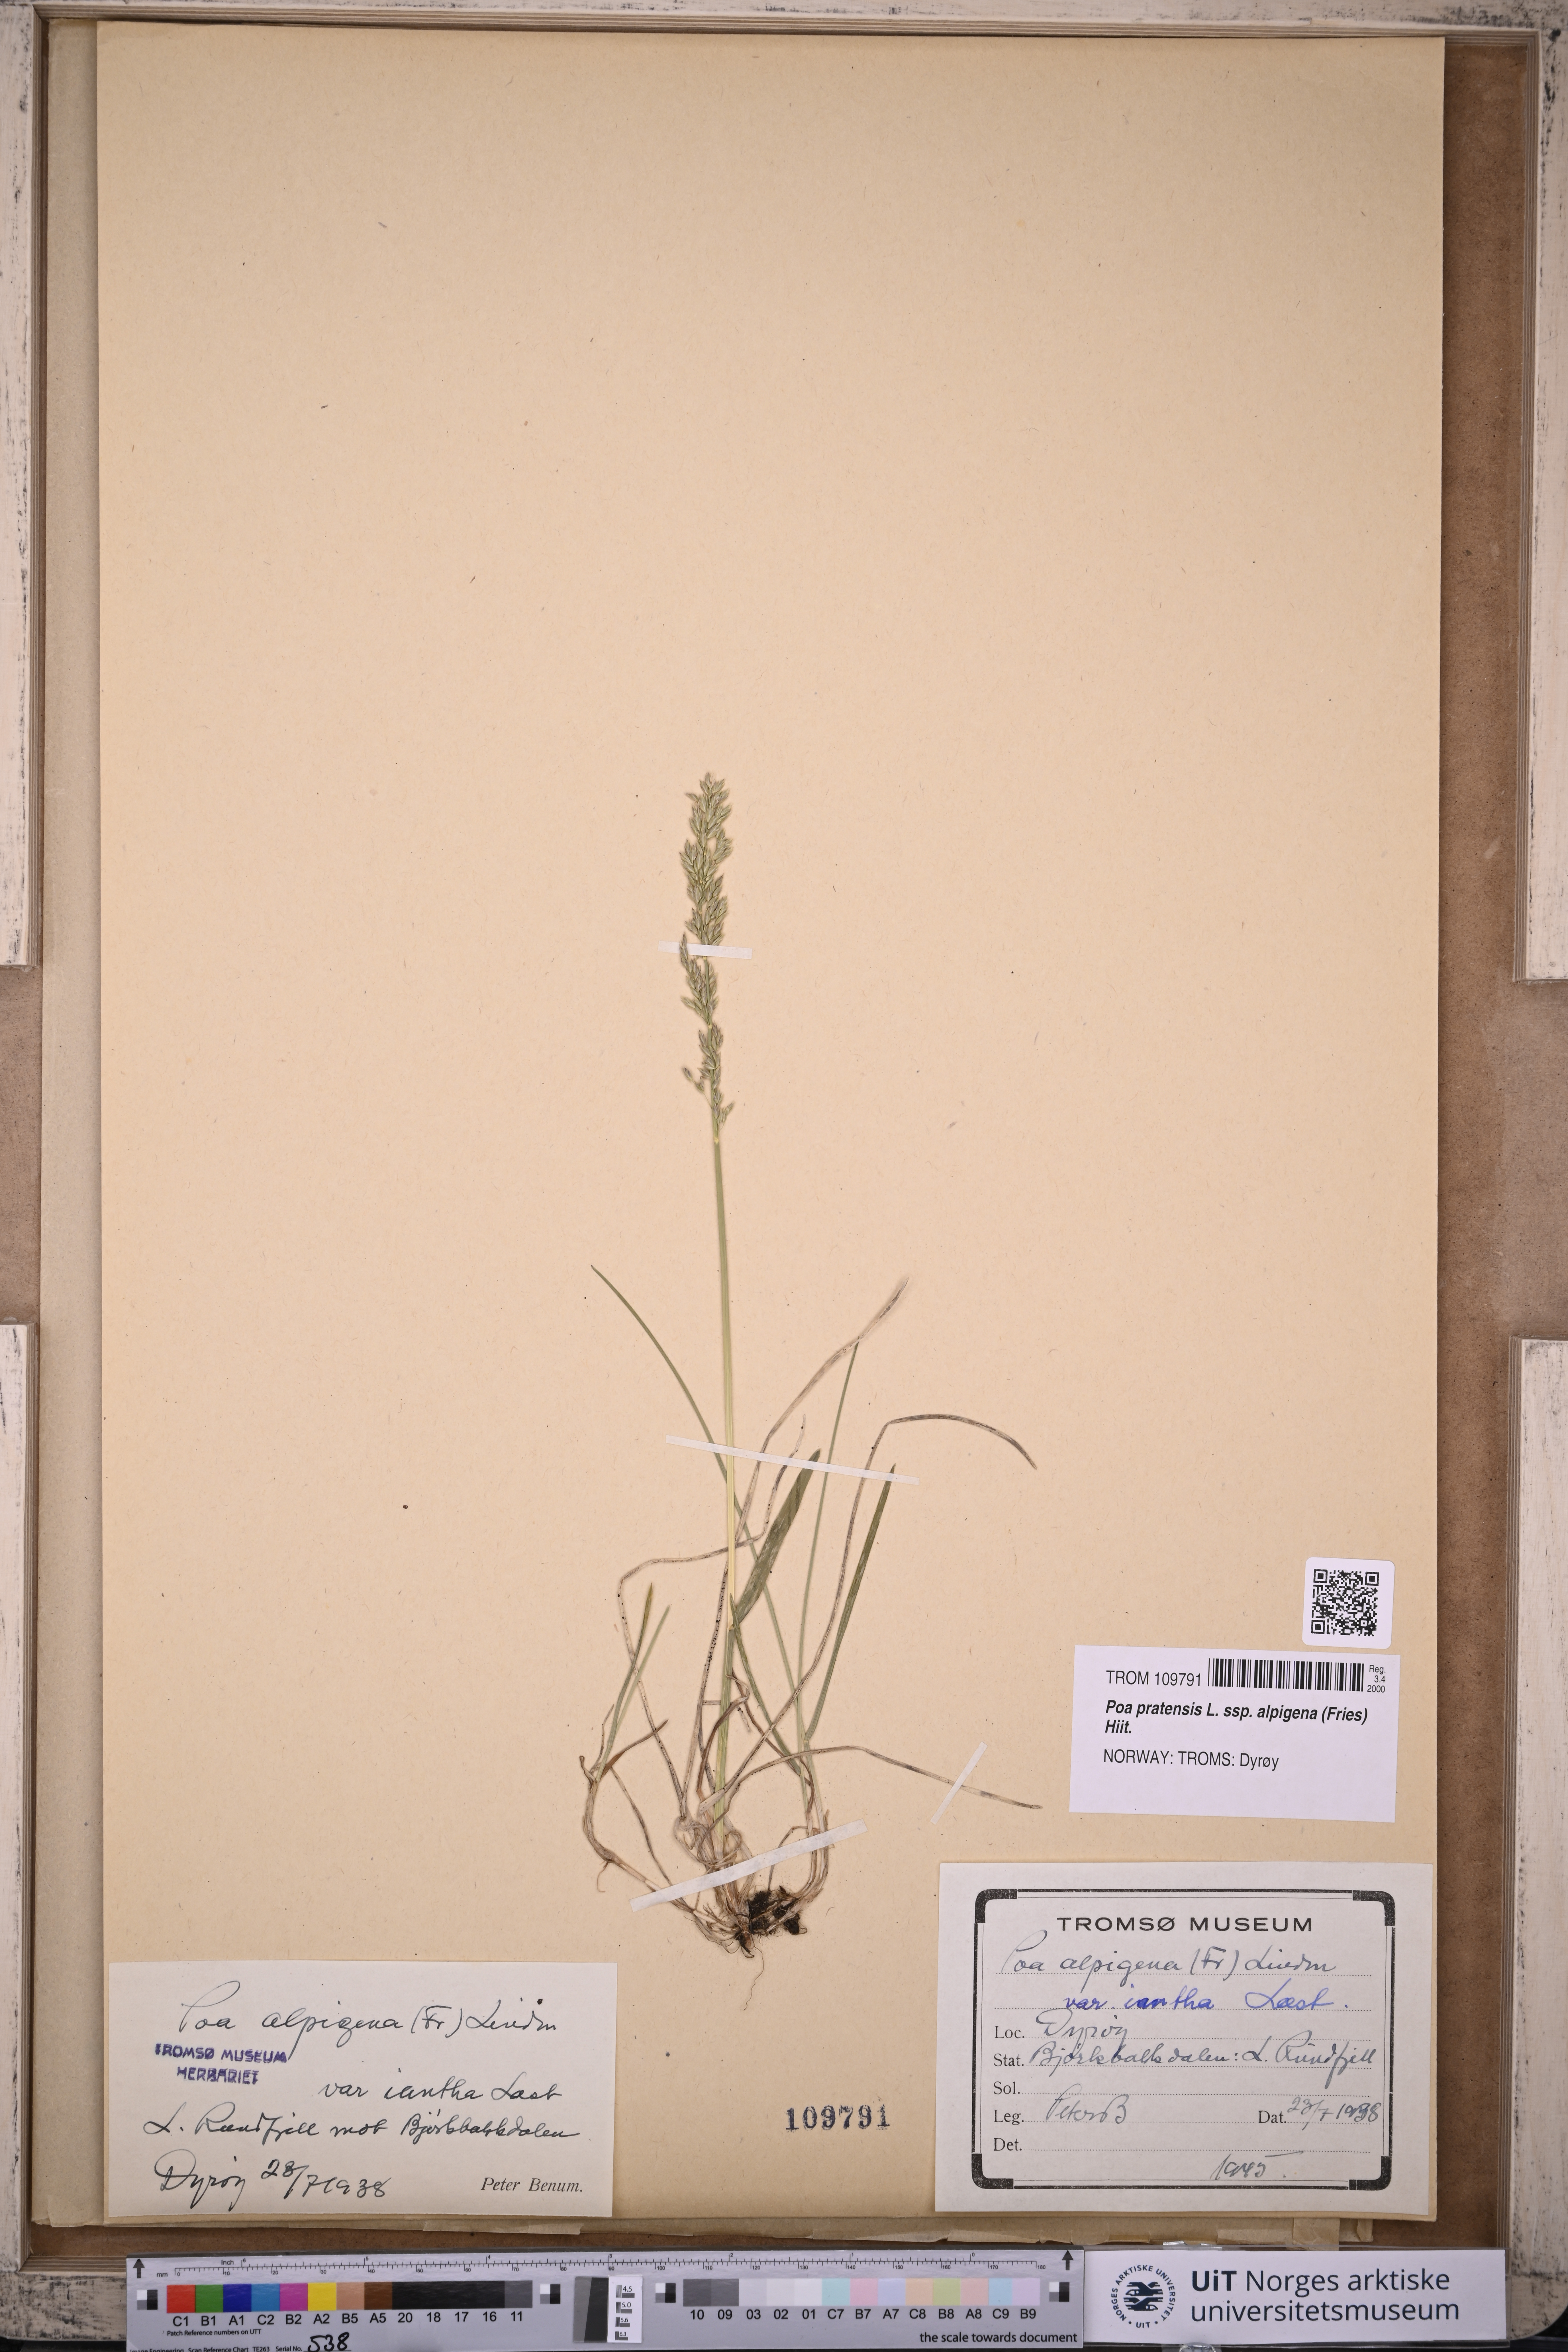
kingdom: Plantae
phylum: Tracheophyta
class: Liliopsida
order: Poales
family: Poaceae
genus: Poa
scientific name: Poa alpigena
